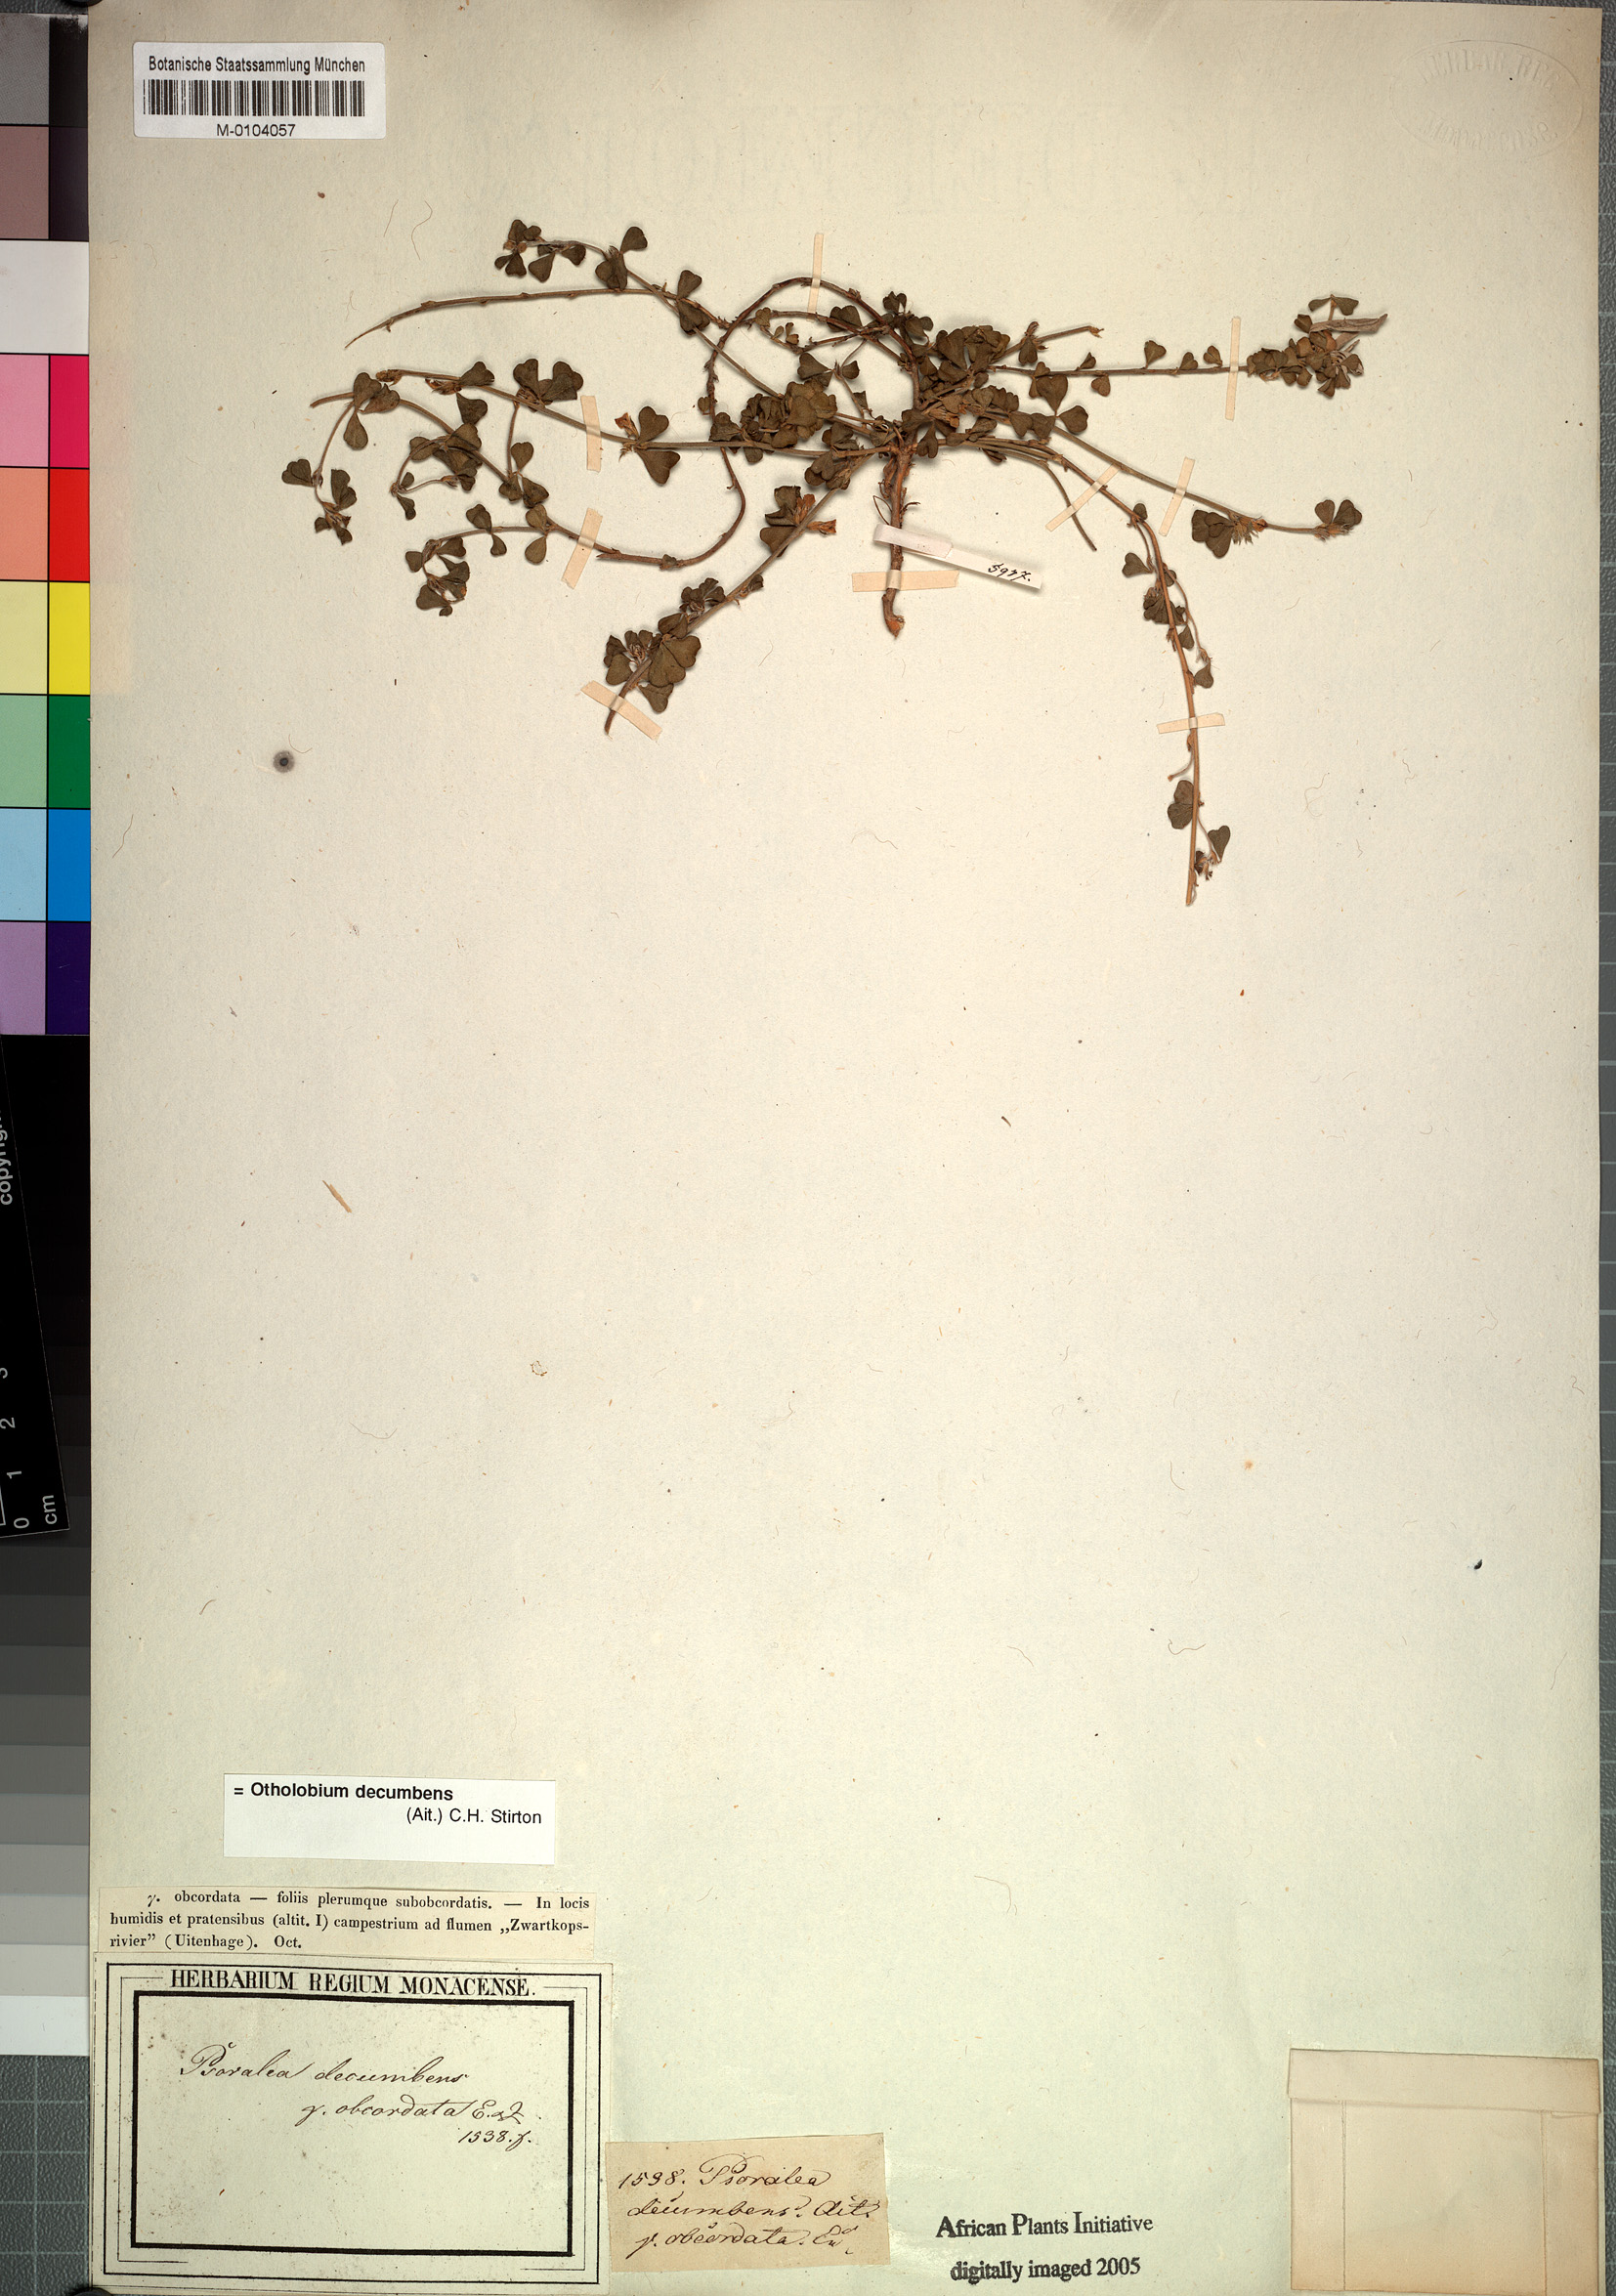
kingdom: Plantae
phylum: Tracheophyta
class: Magnoliopsida
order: Fabales
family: Fabaceae
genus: Psoralea
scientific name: Psoralea Otholobium decumbens
